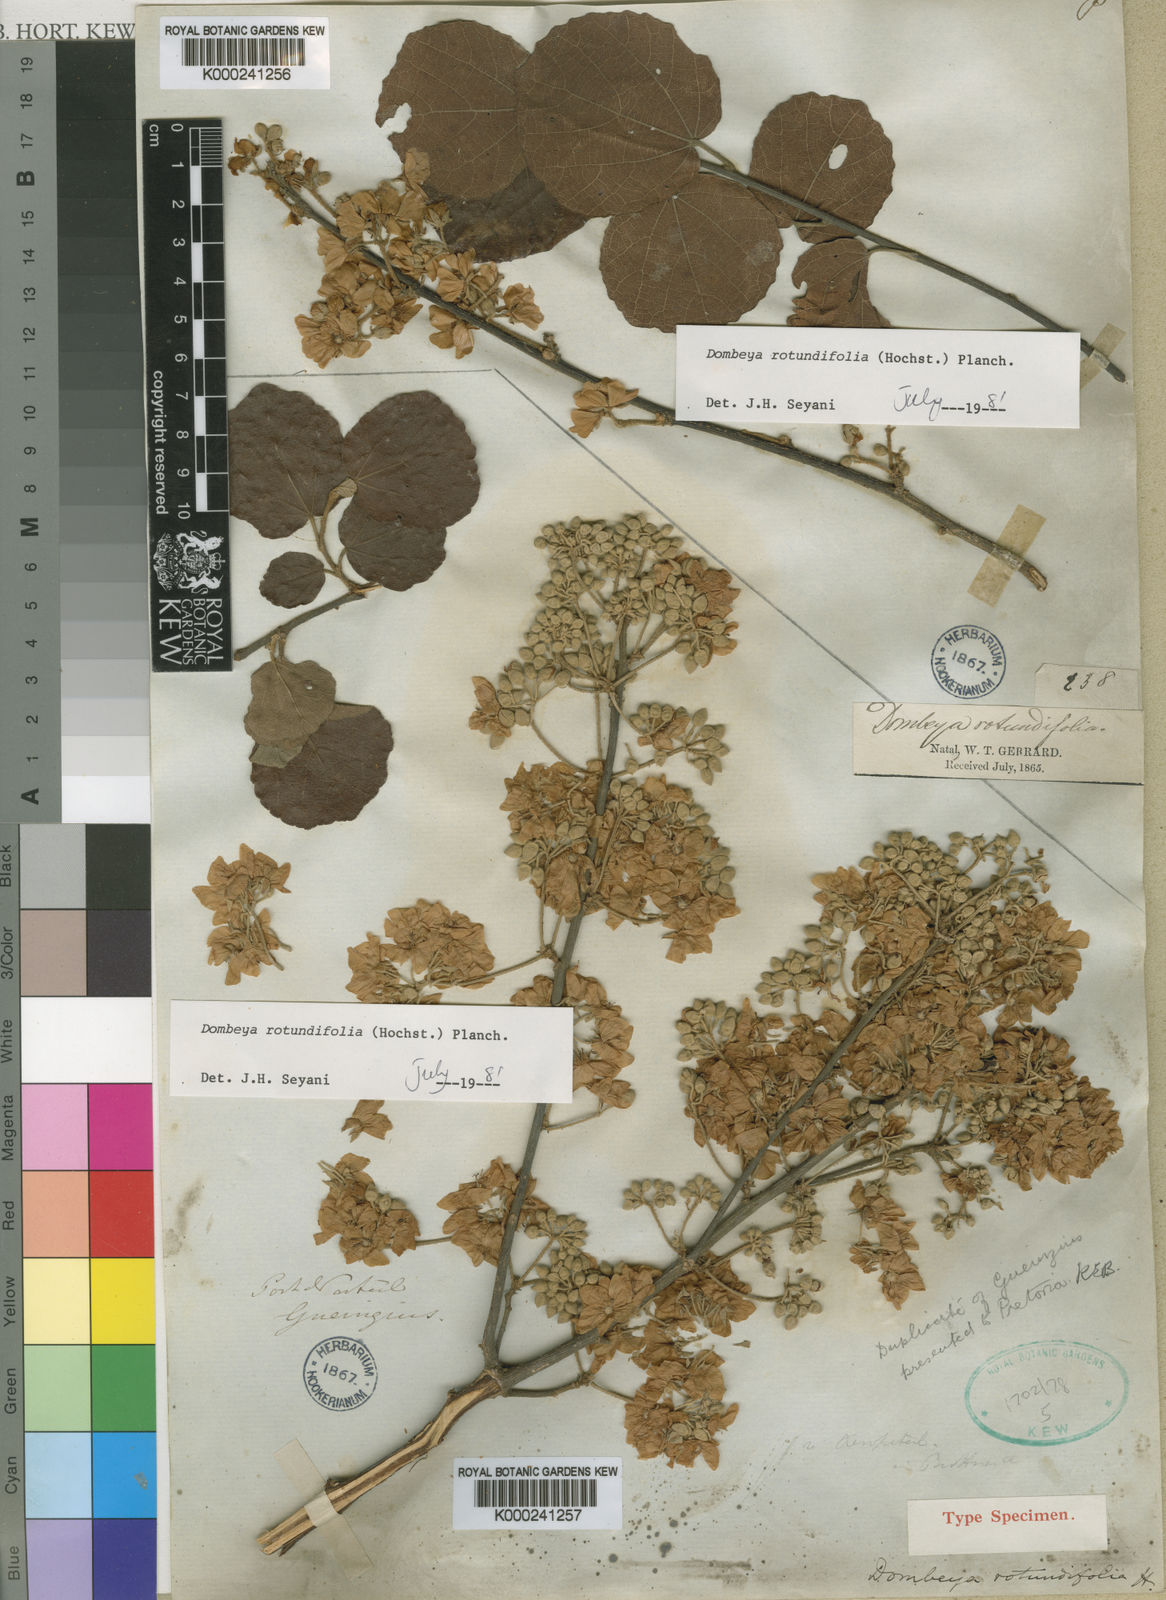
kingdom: Plantae
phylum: Tracheophyta
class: Magnoliopsida
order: Malvales
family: Malvaceae
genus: Dombeya
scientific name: Dombeya rotundifolia
